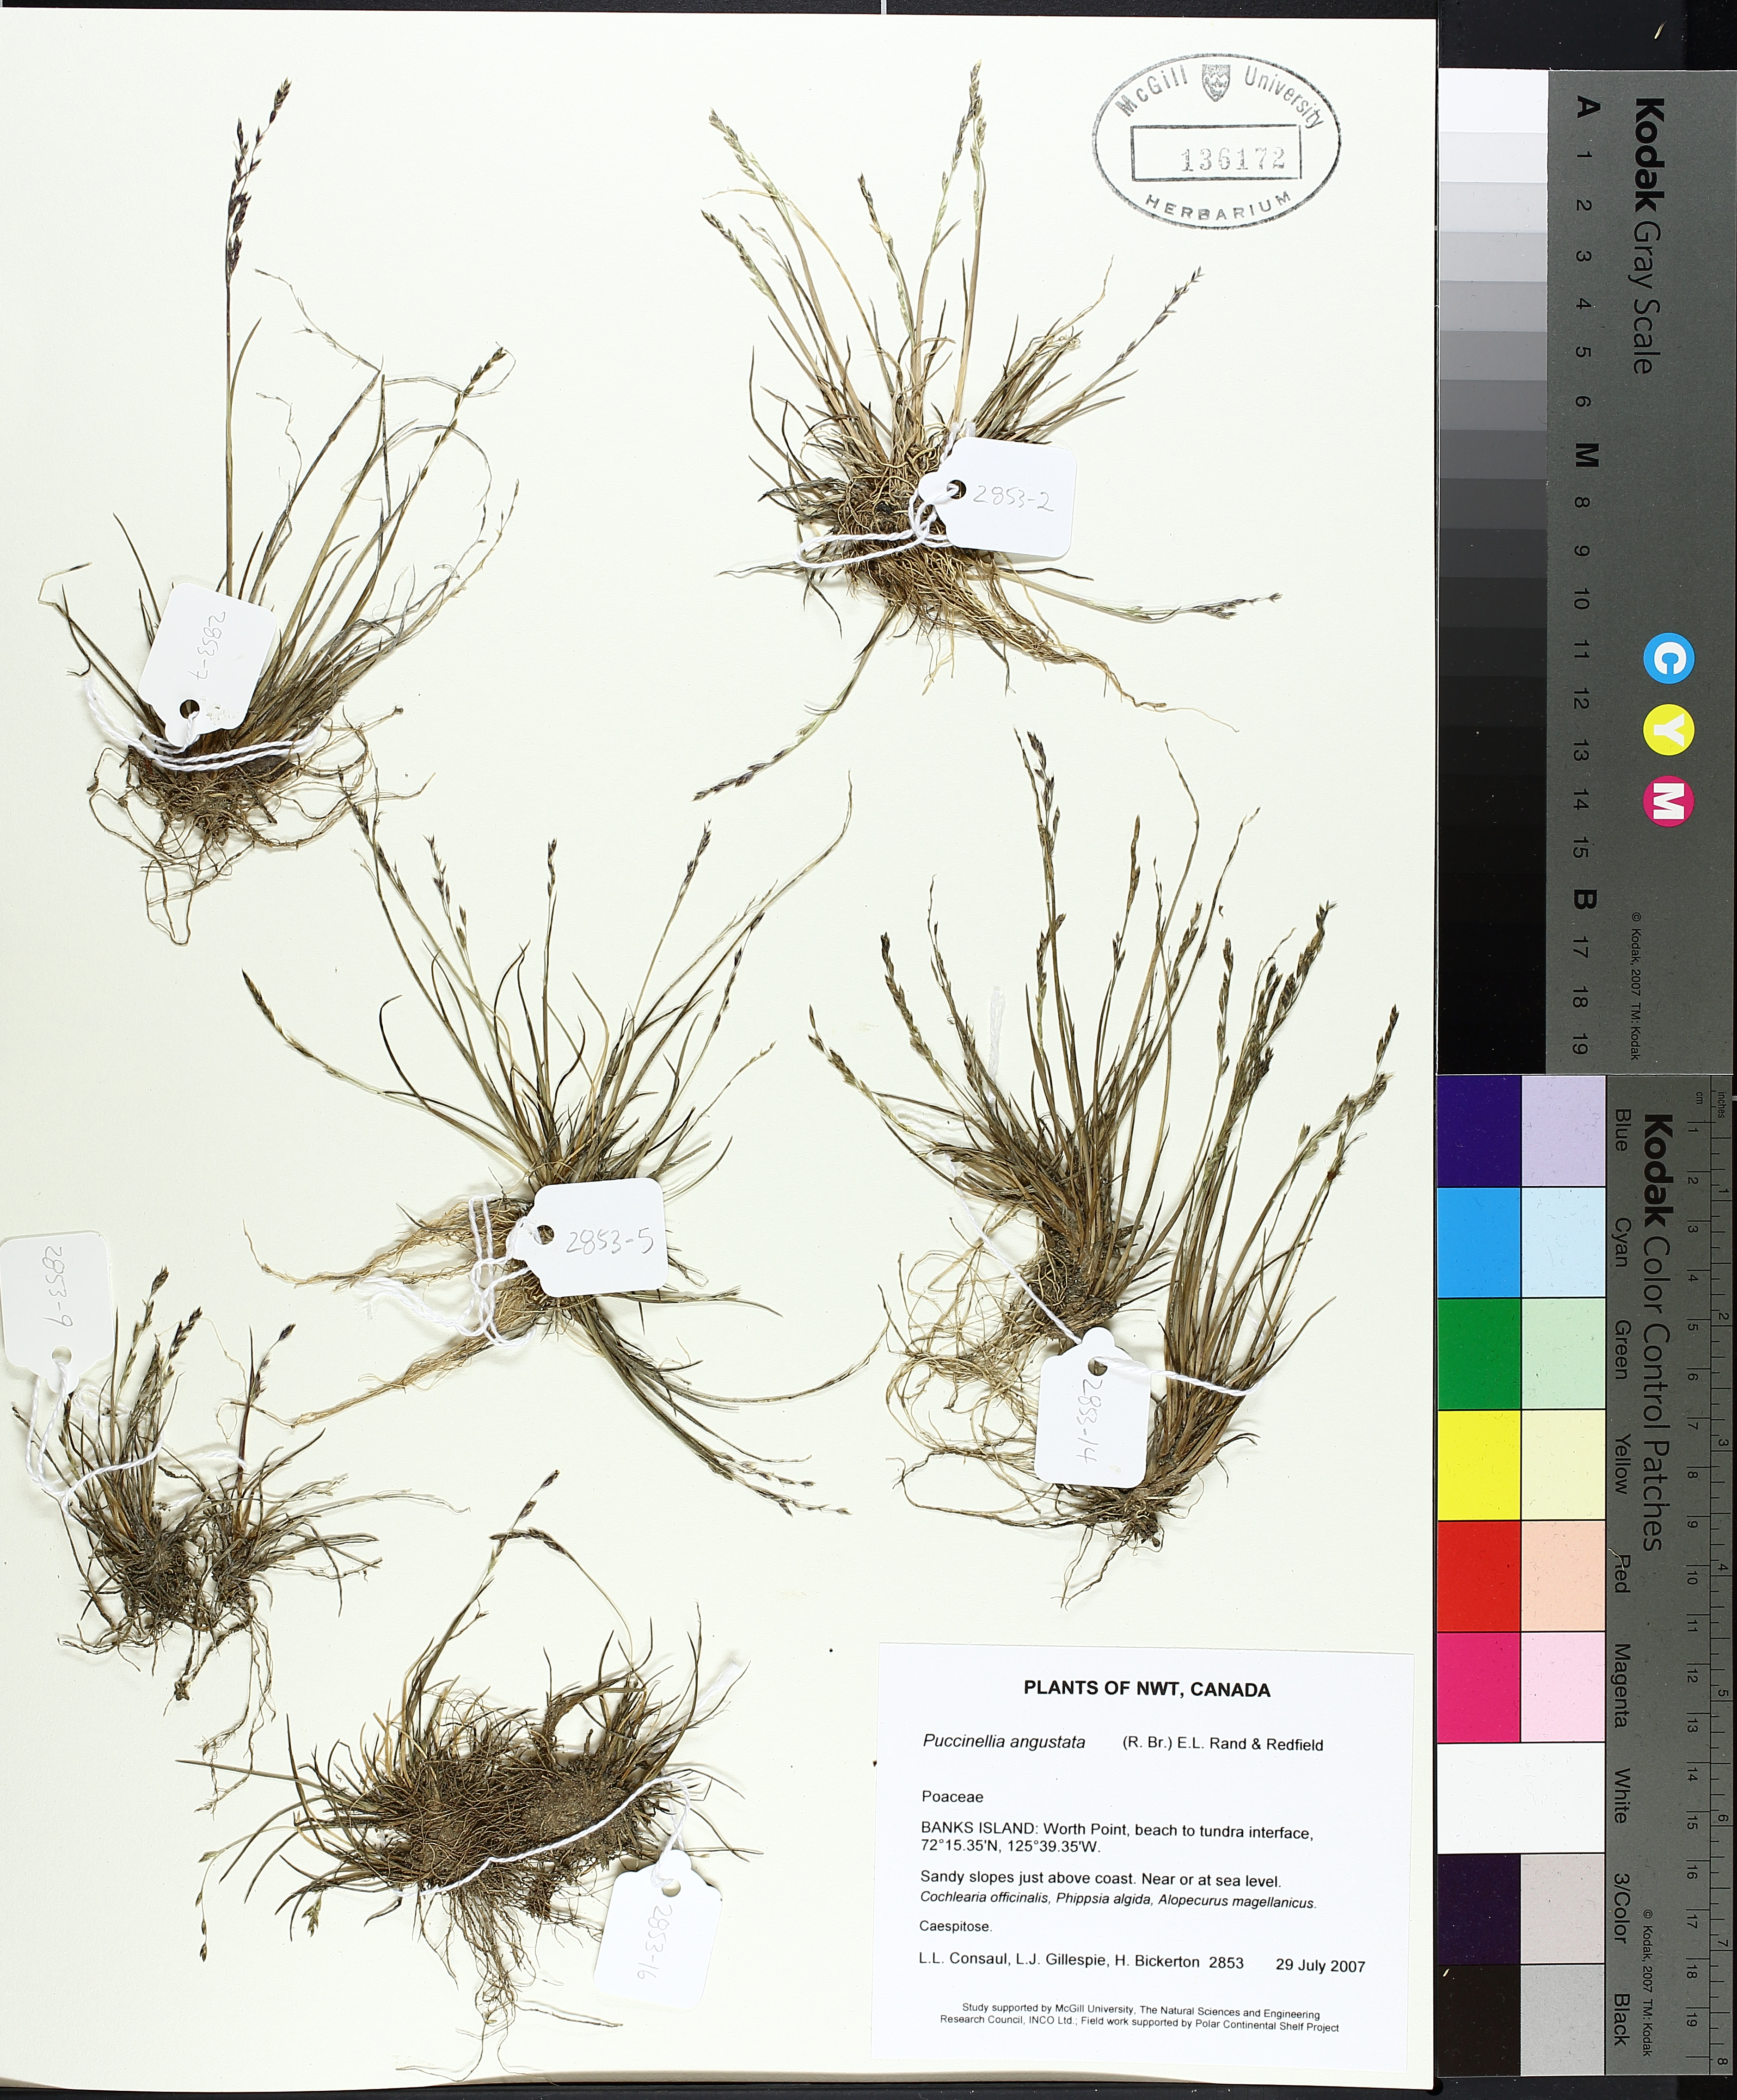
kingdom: Plantae
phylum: Tracheophyta
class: Liliopsida
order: Poales
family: Poaceae
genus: Puccinellia
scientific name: Puccinellia angustata
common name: Narrow alkaligrass
